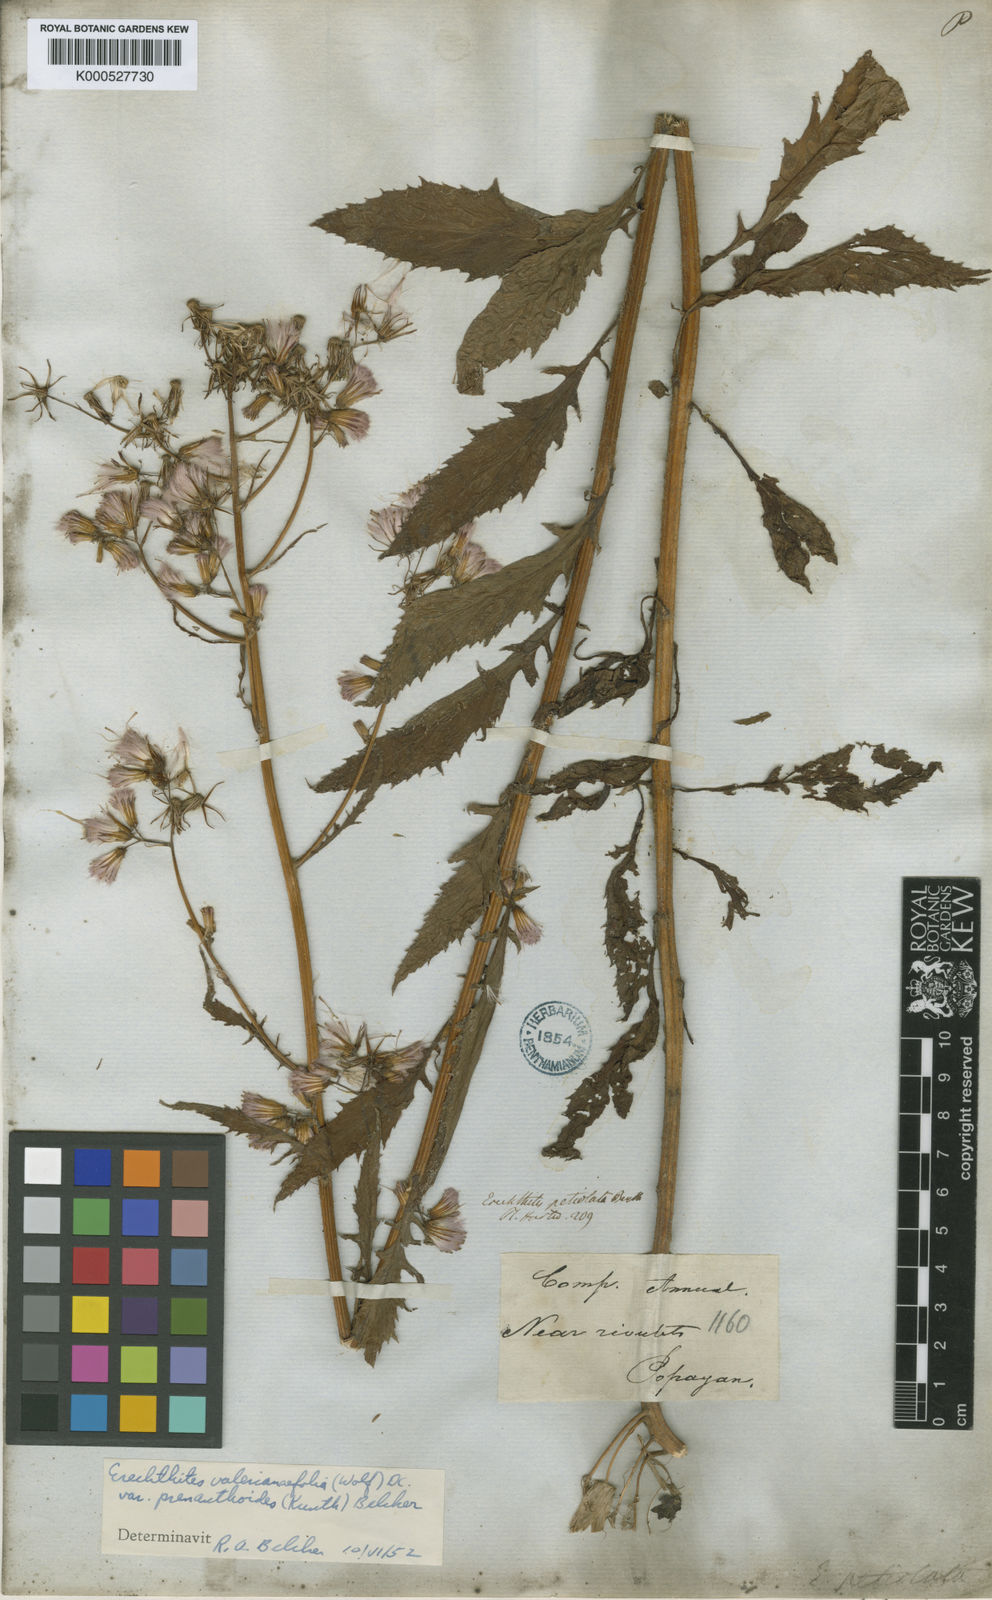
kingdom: Plantae
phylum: Tracheophyta
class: Magnoliopsida
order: Asterales
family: Asteraceae
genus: Erechtites
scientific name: Erechtites albiflorus
